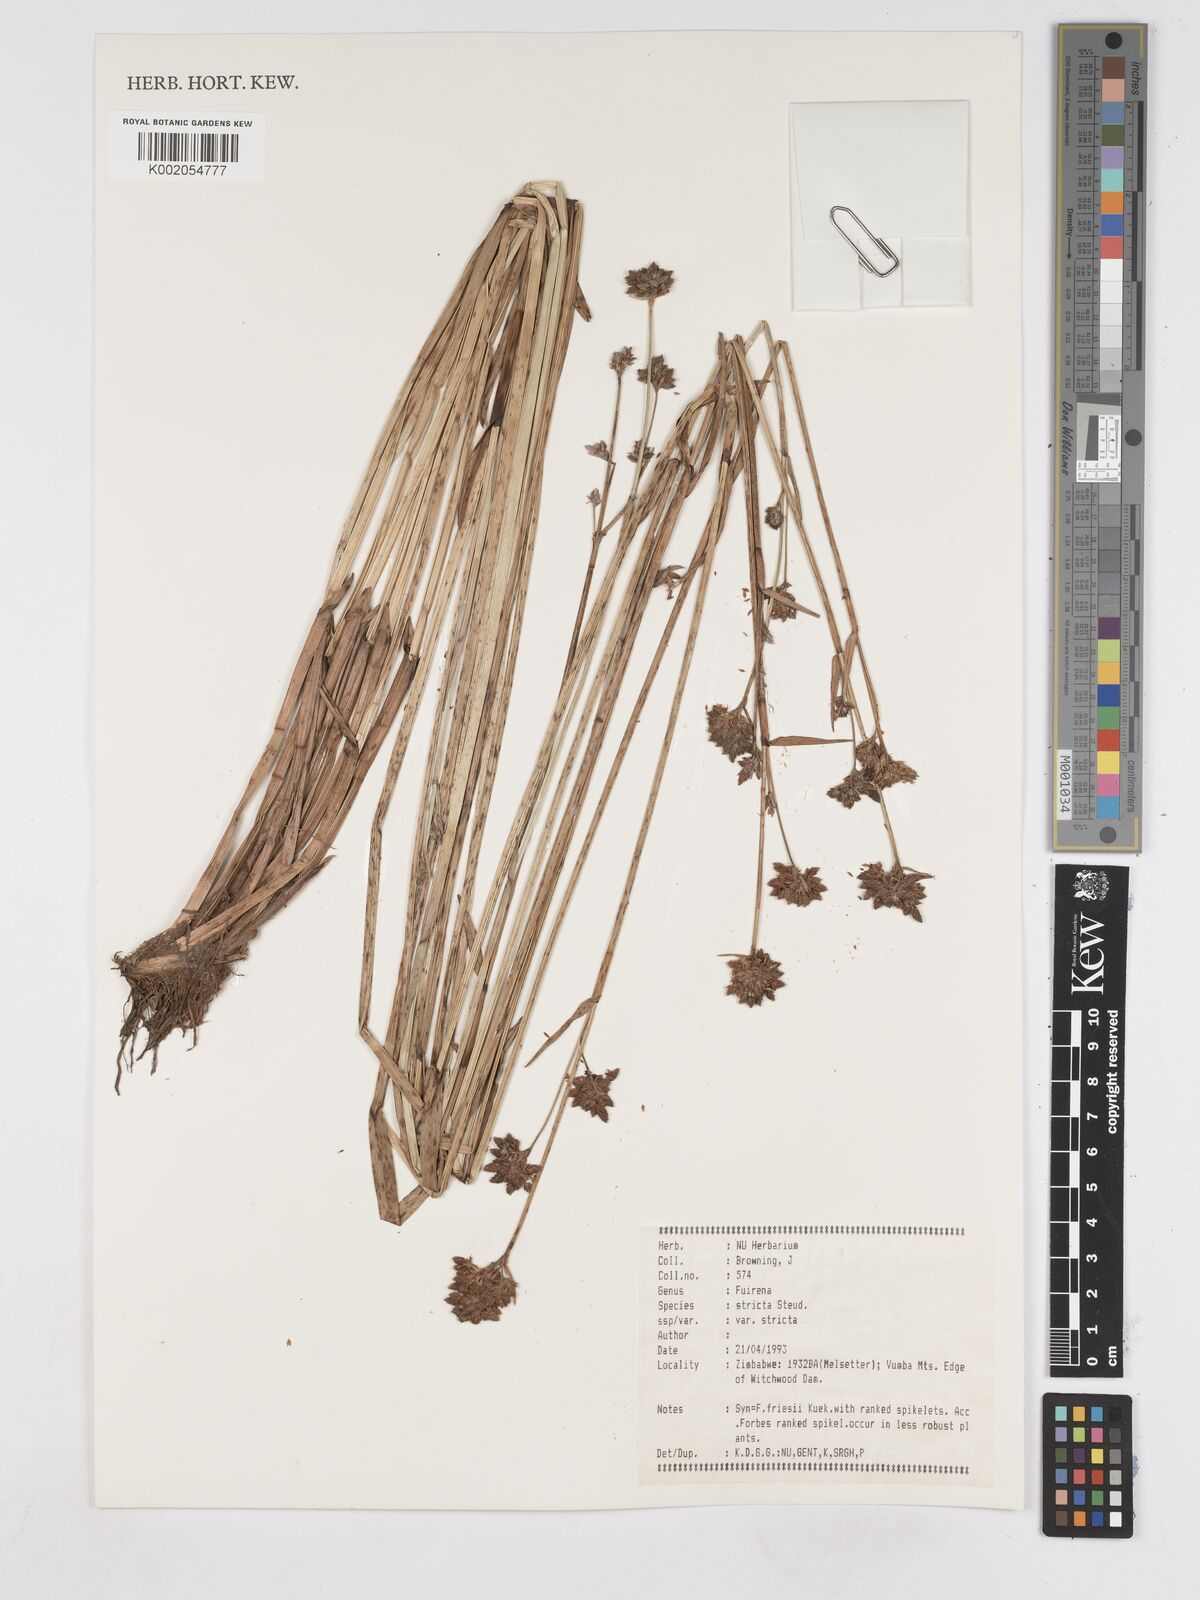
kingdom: Plantae
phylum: Tracheophyta
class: Liliopsida
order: Poales
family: Cyperaceae
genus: Fuirena
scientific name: Fuirena stricta
